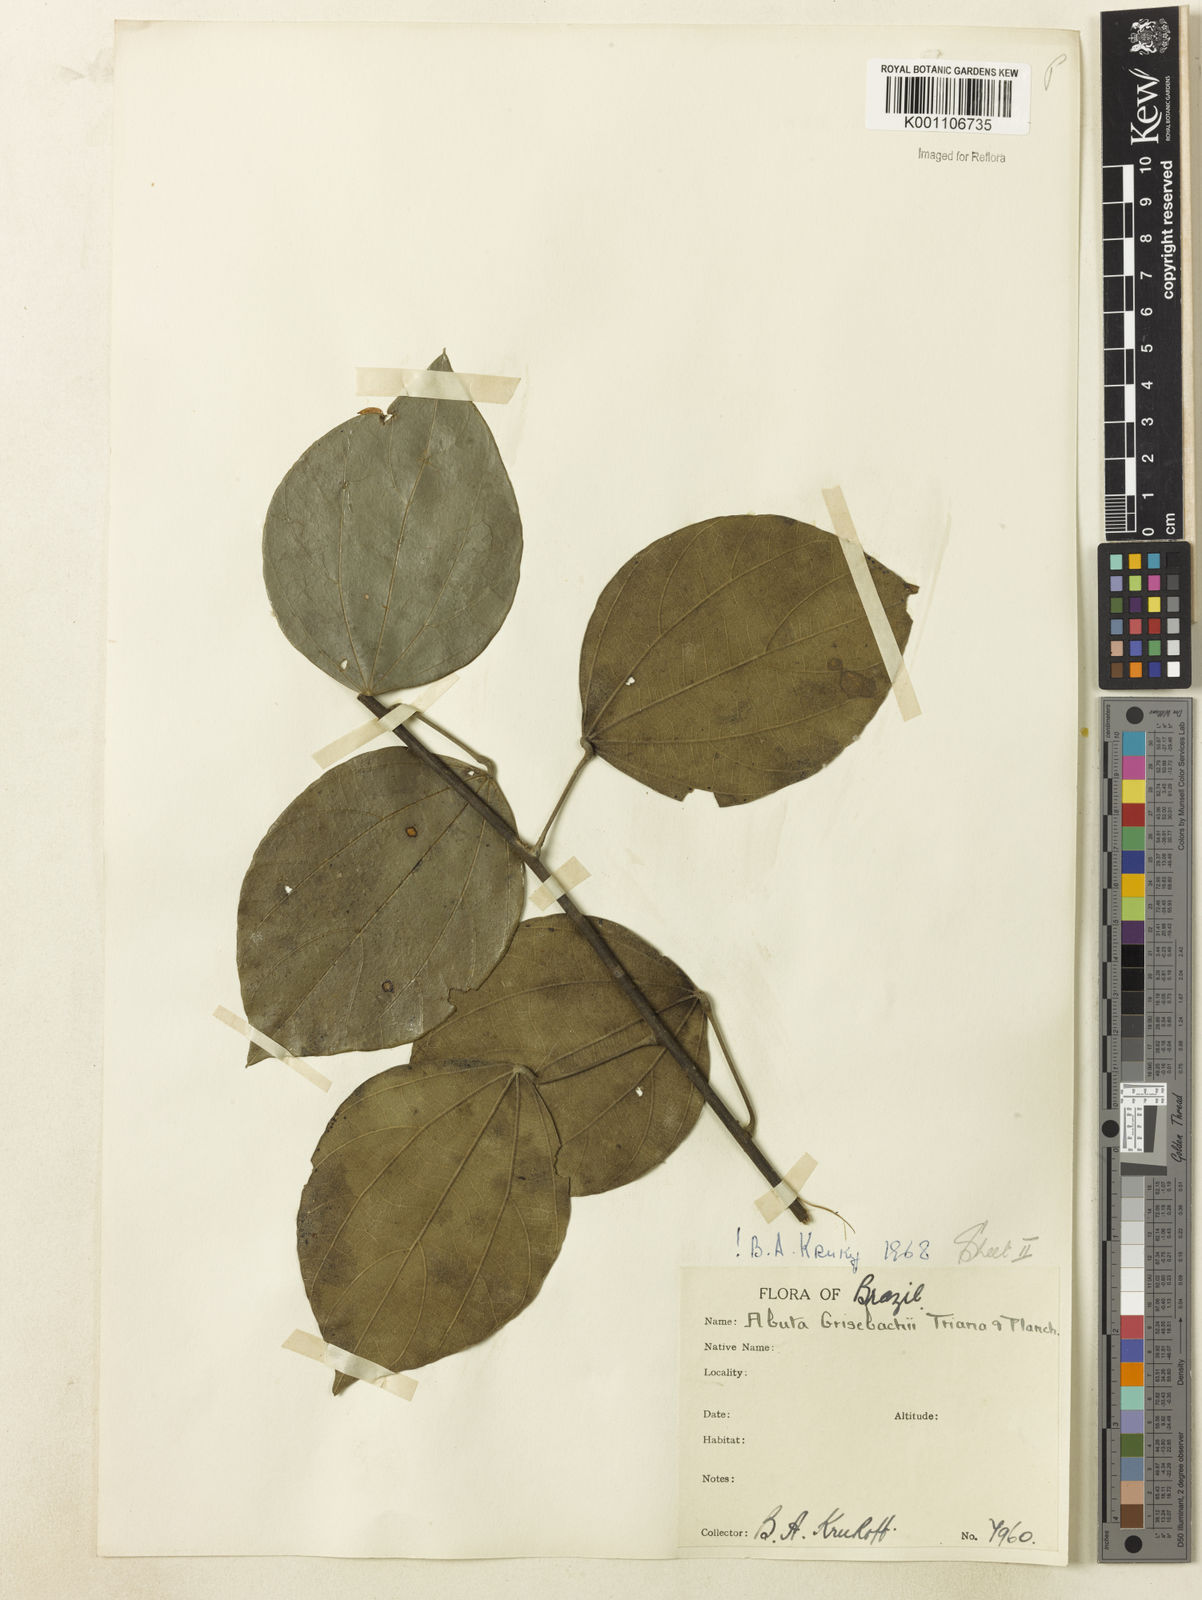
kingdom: Plantae
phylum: Tracheophyta
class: Magnoliopsida
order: Ranunculales
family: Menispermaceae
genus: Abuta
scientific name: Abuta grisebachii
